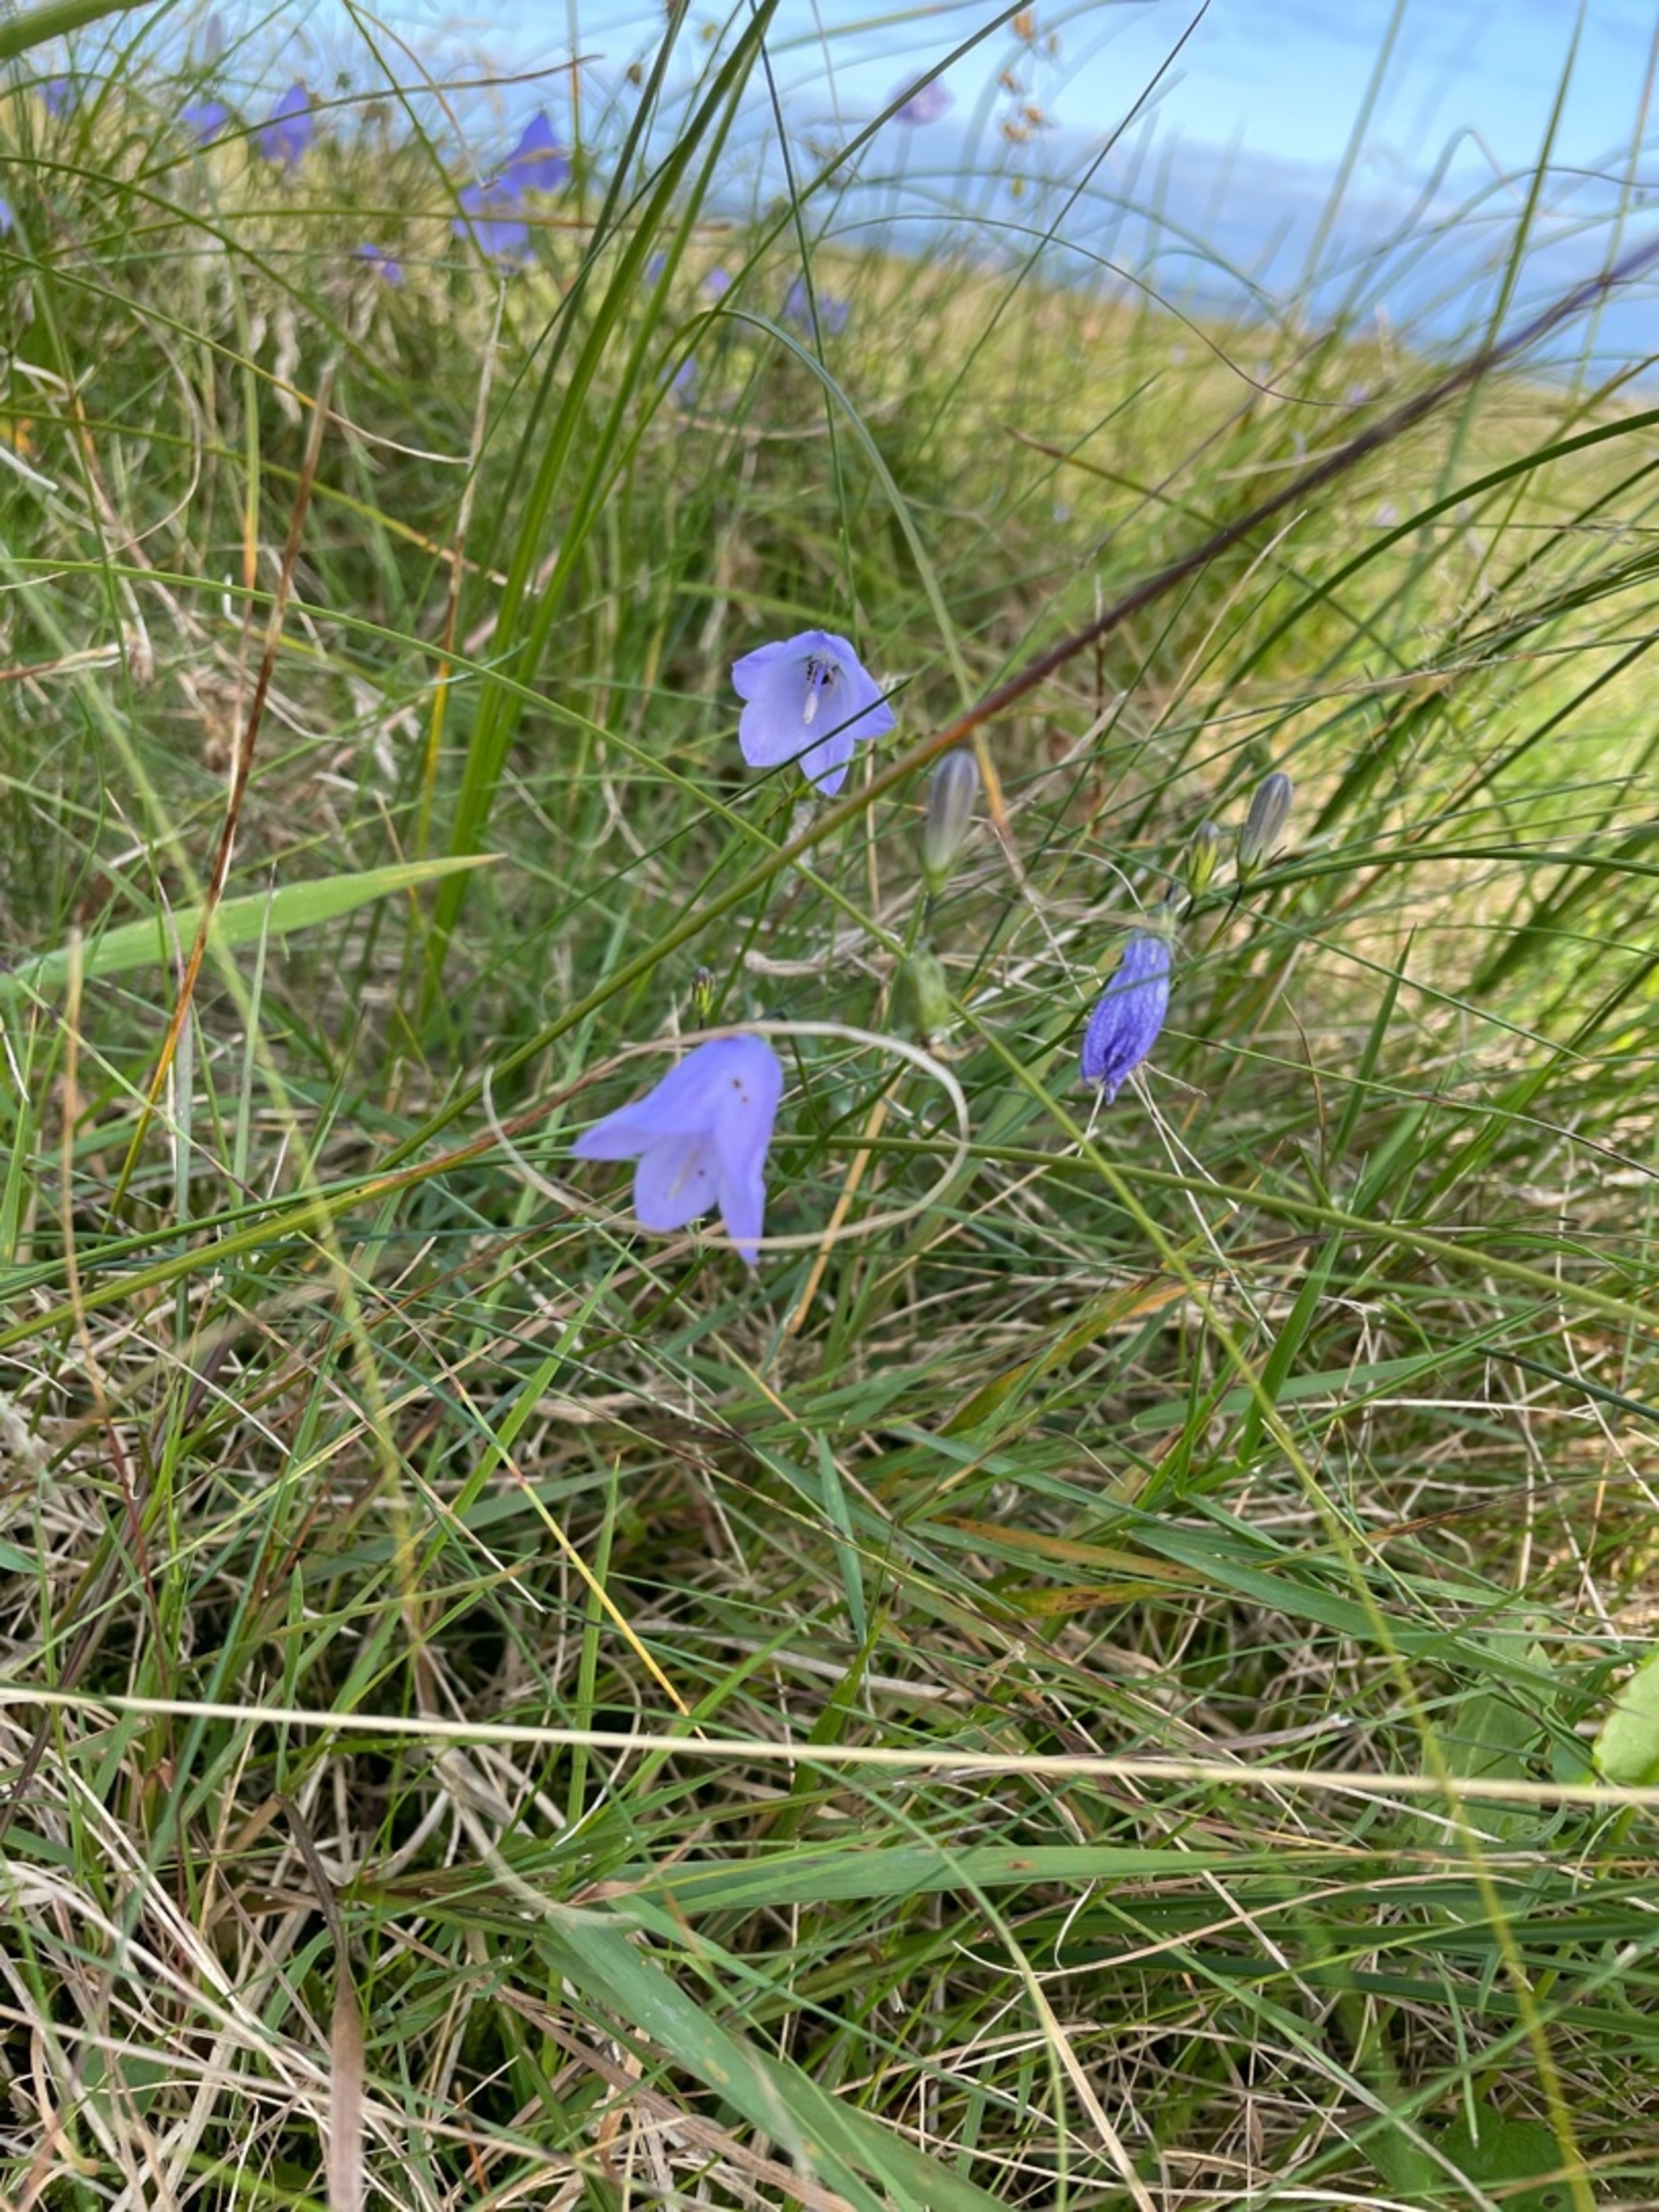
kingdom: Plantae
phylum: Tracheophyta
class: Magnoliopsida
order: Asterales
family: Campanulaceae
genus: Campanula
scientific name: Campanula rotundifolia
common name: Liden klokke
